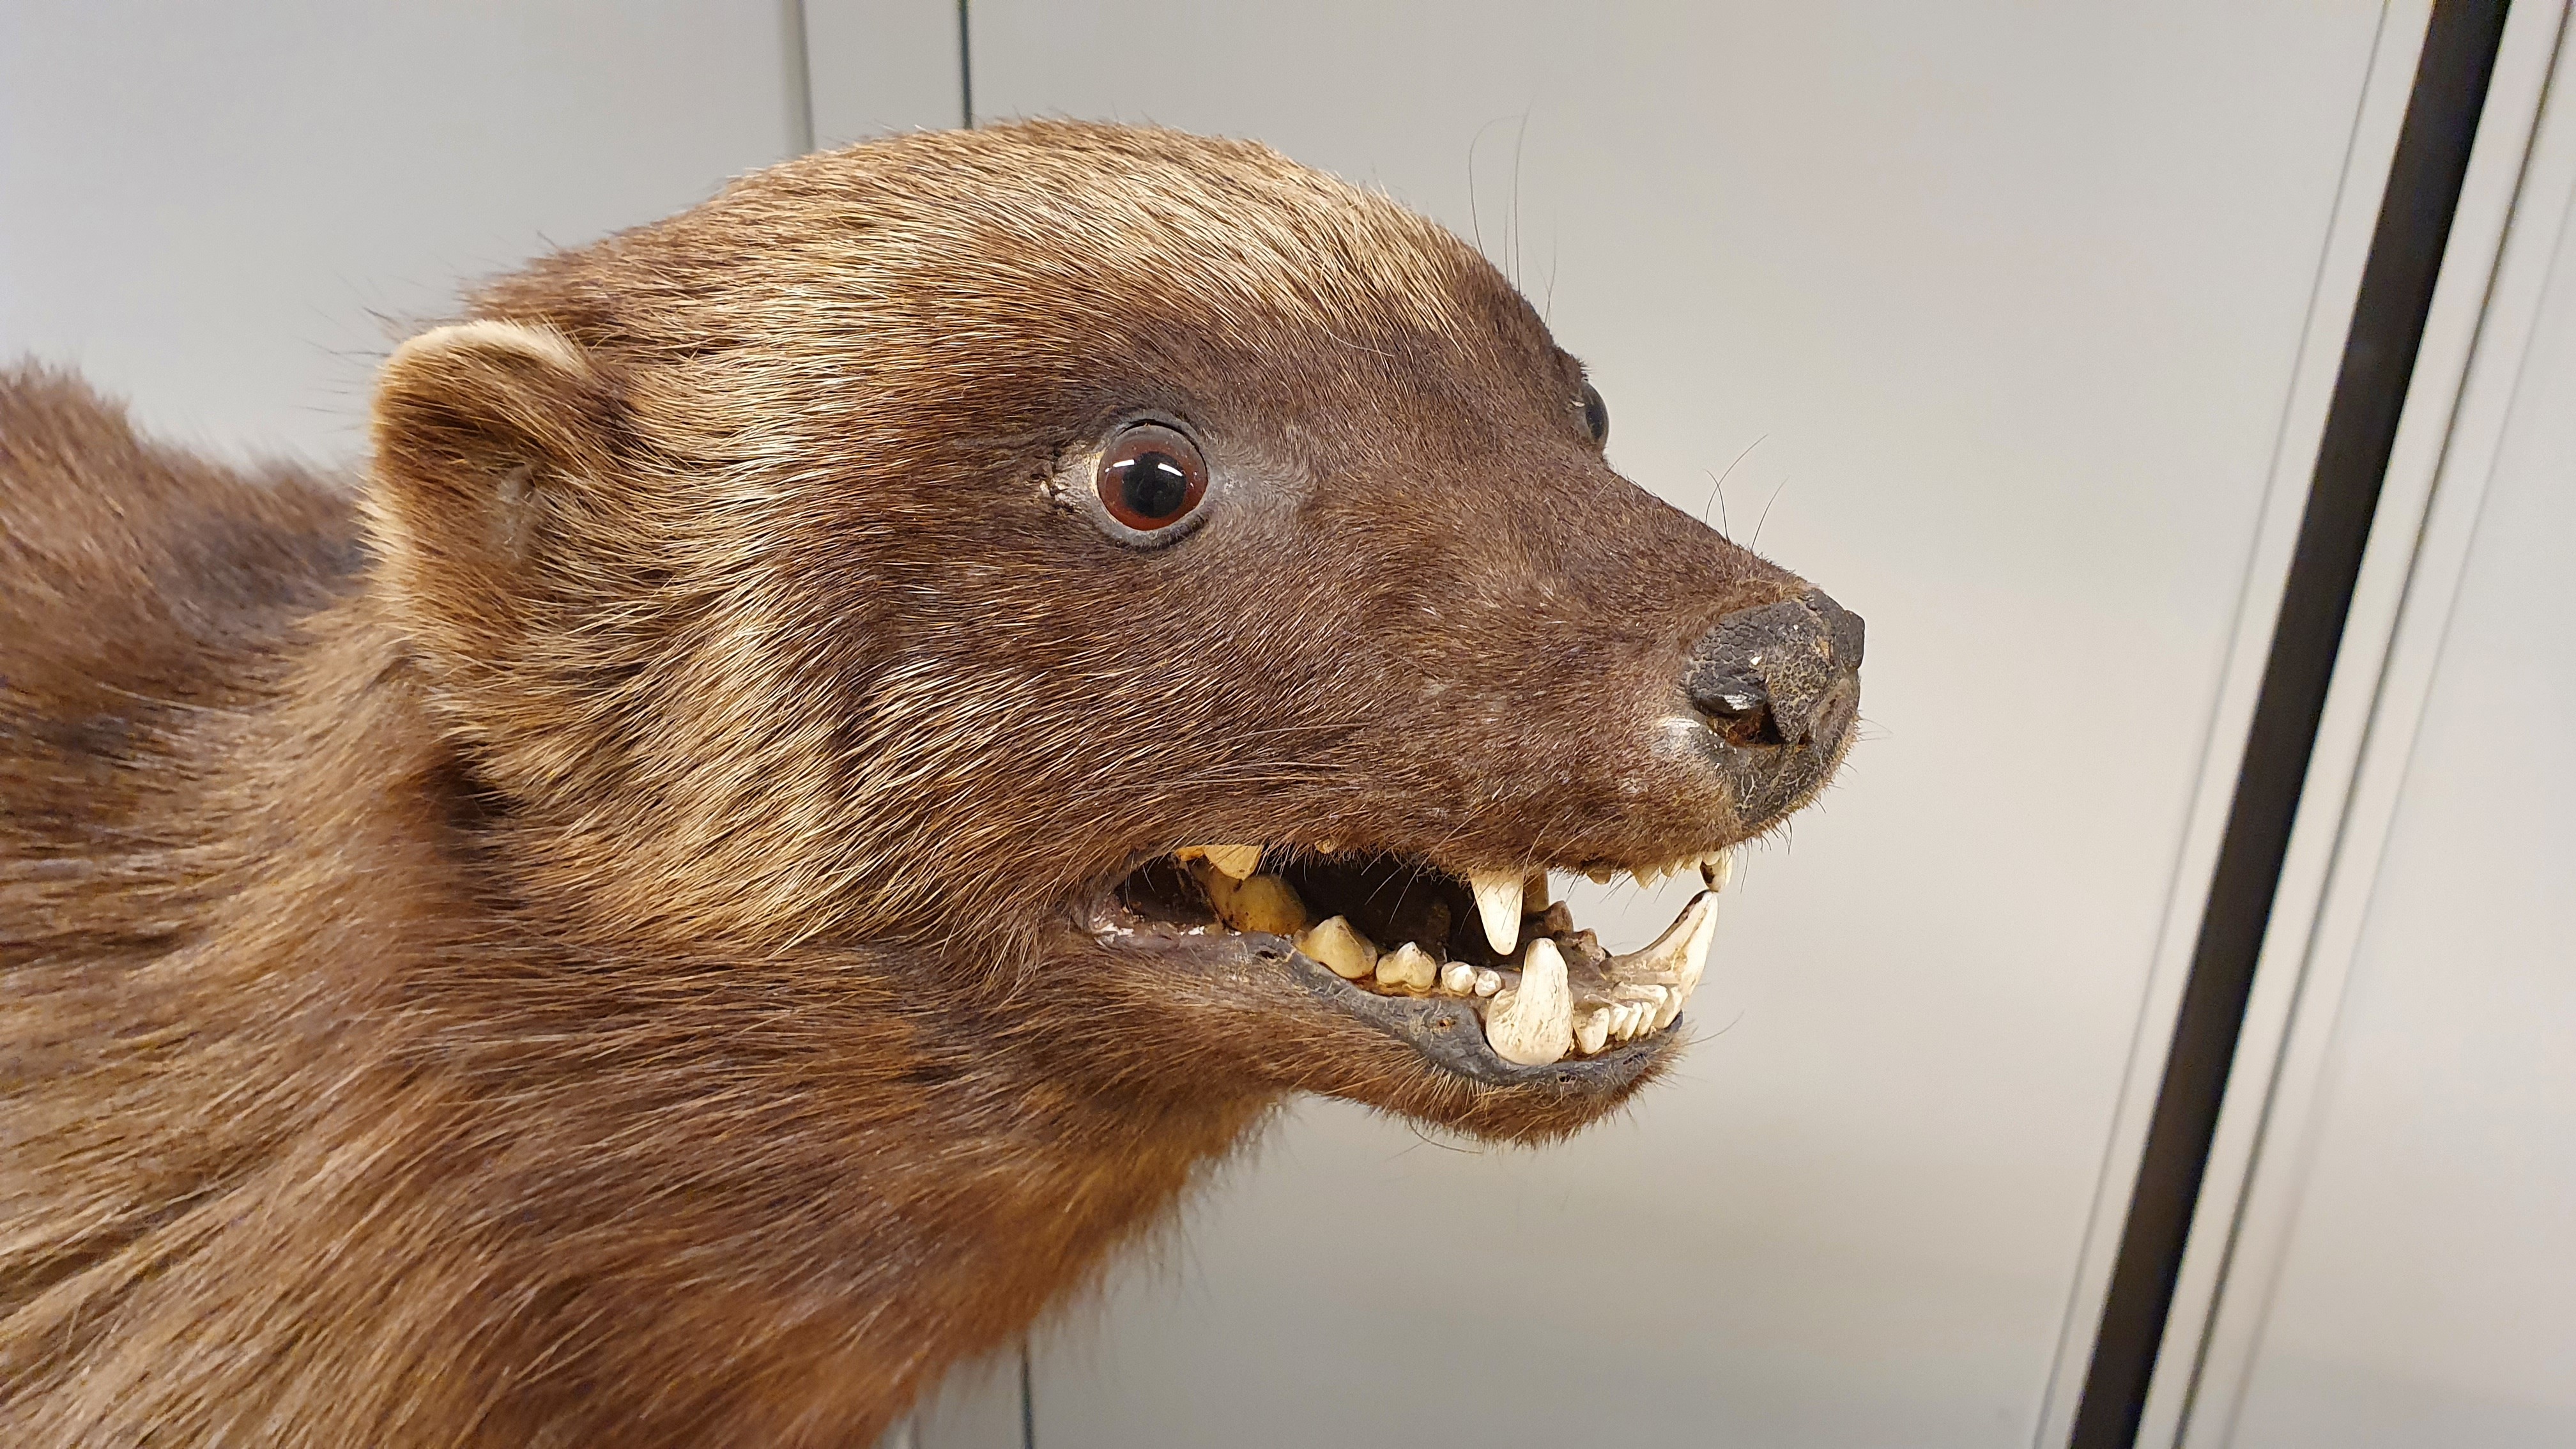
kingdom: Animalia
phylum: Chordata
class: Mammalia
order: Carnivora
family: Mustelidae
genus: Gulo
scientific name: Gulo gulo
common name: Wolverine
